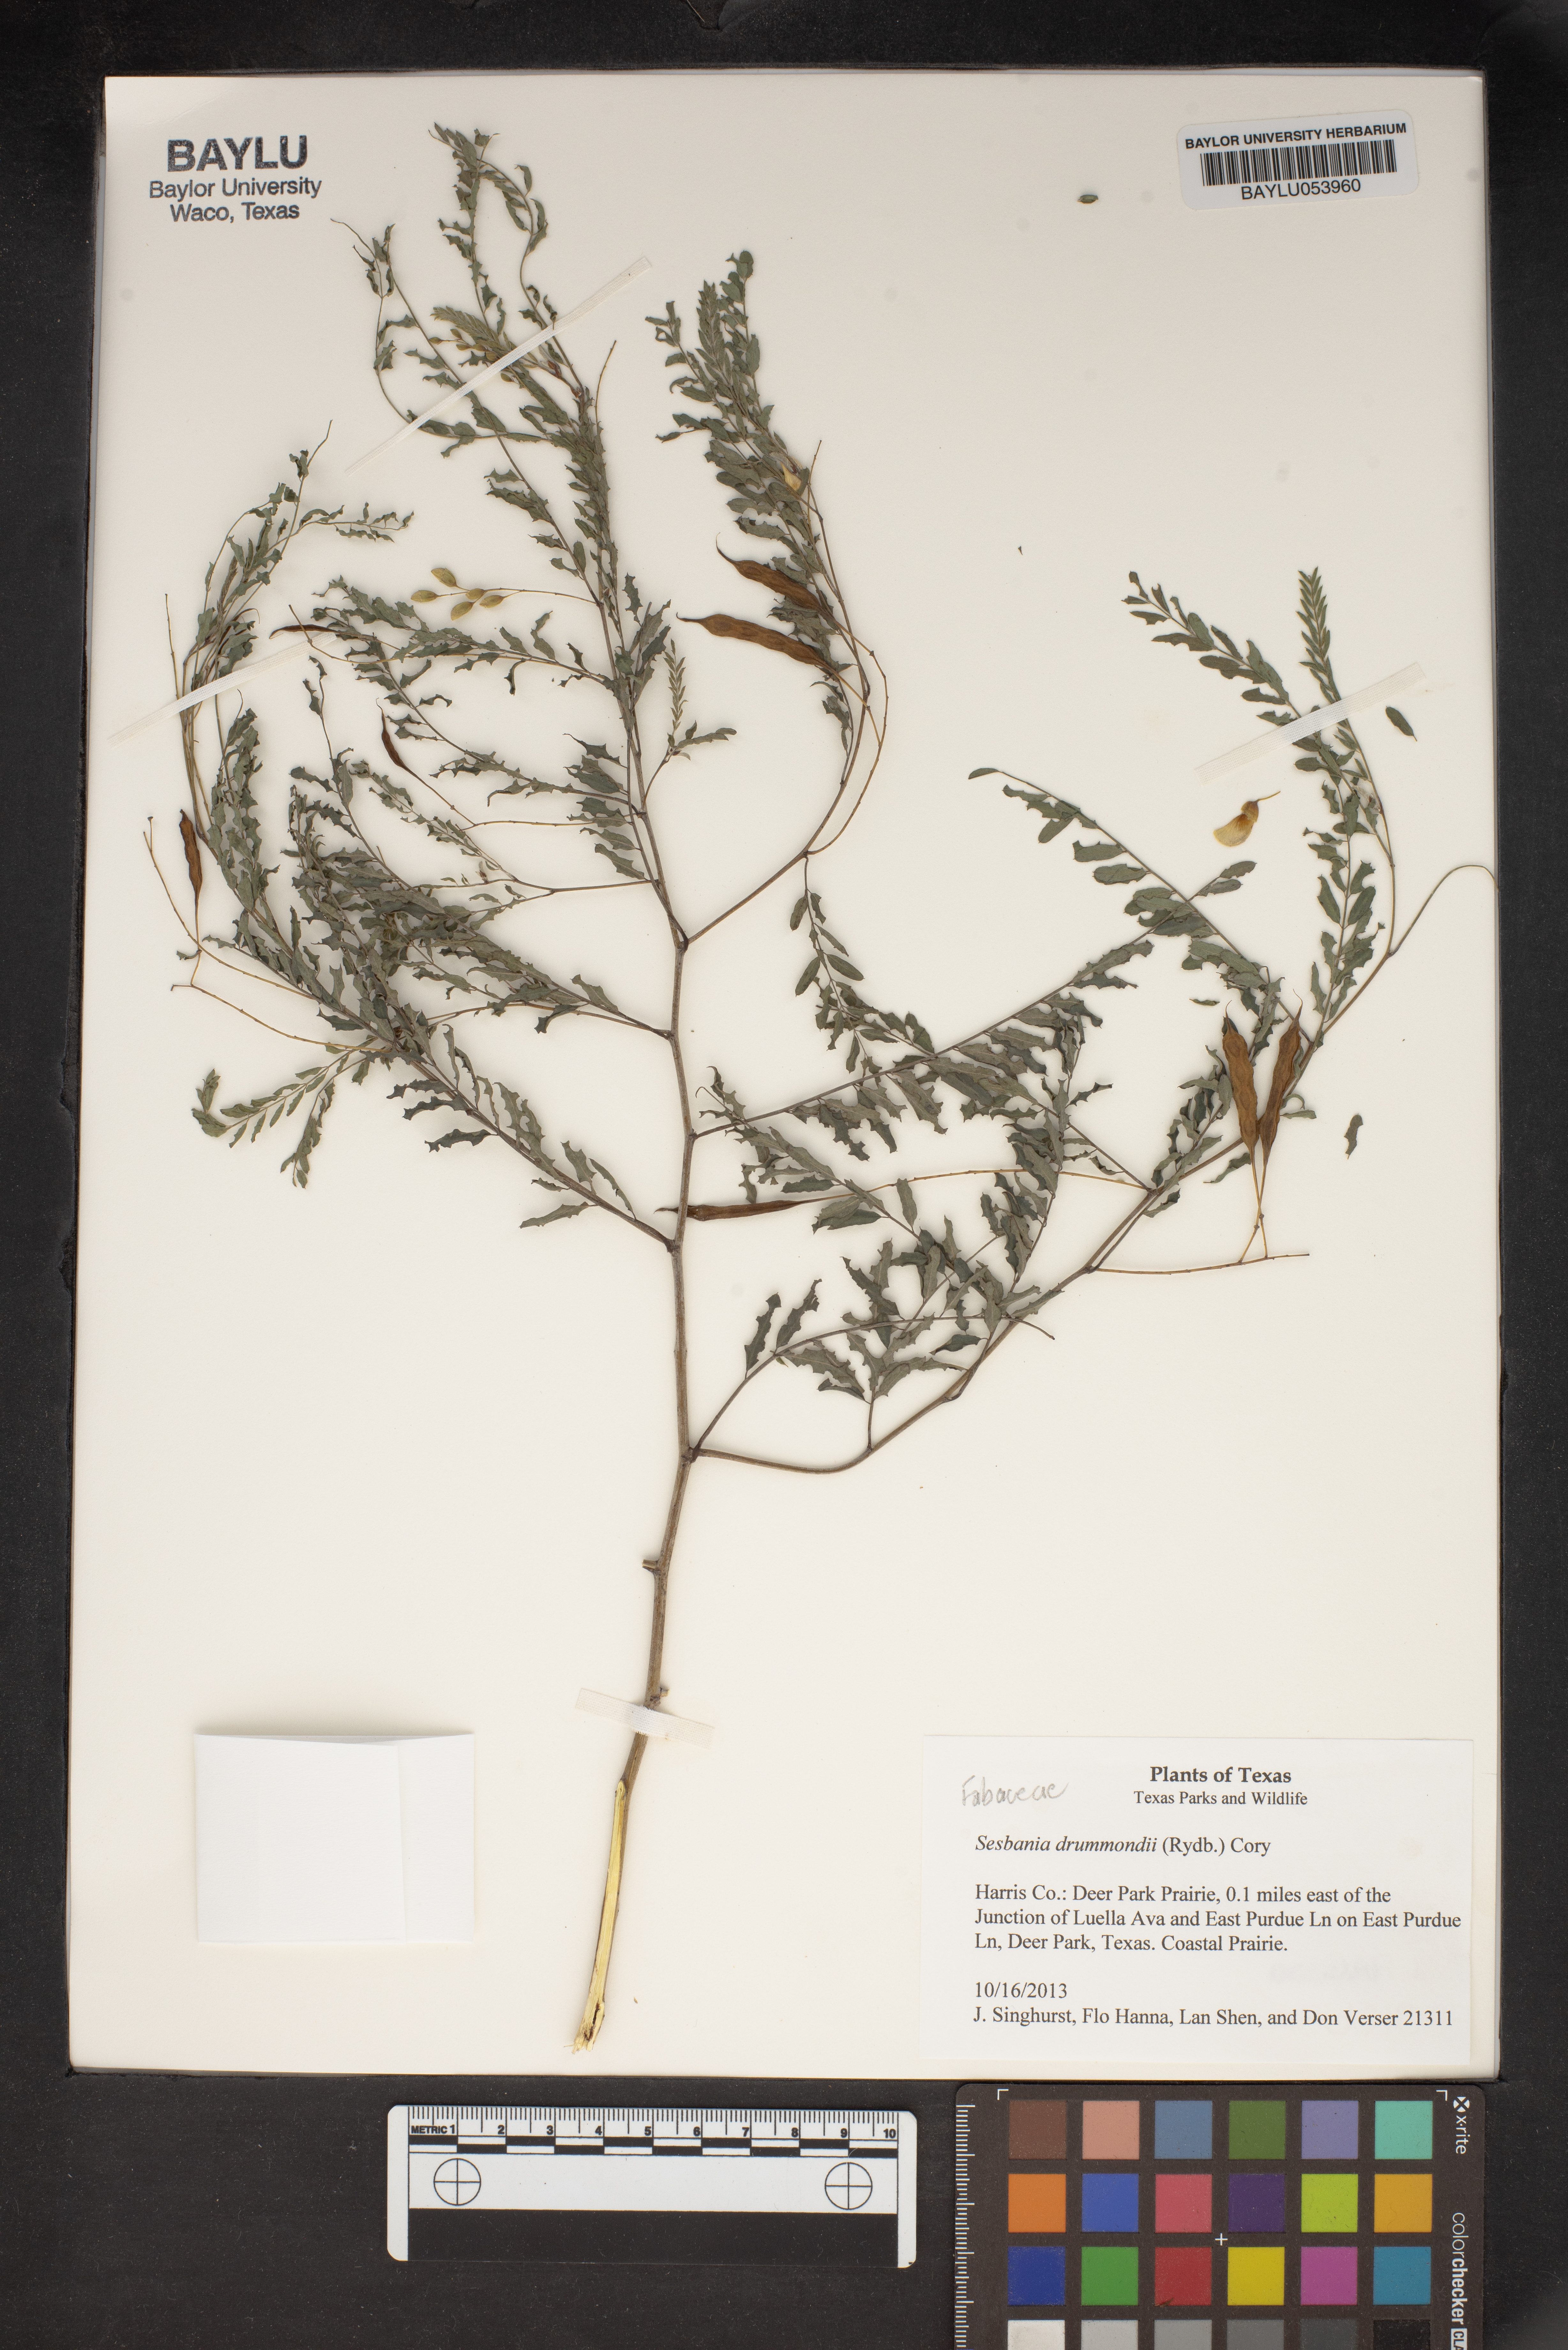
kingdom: Plantae
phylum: Tracheophyta
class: Magnoliopsida
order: Fabales
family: Fabaceae
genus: Sesbania
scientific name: Sesbania drummondii
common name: Poison-bean
